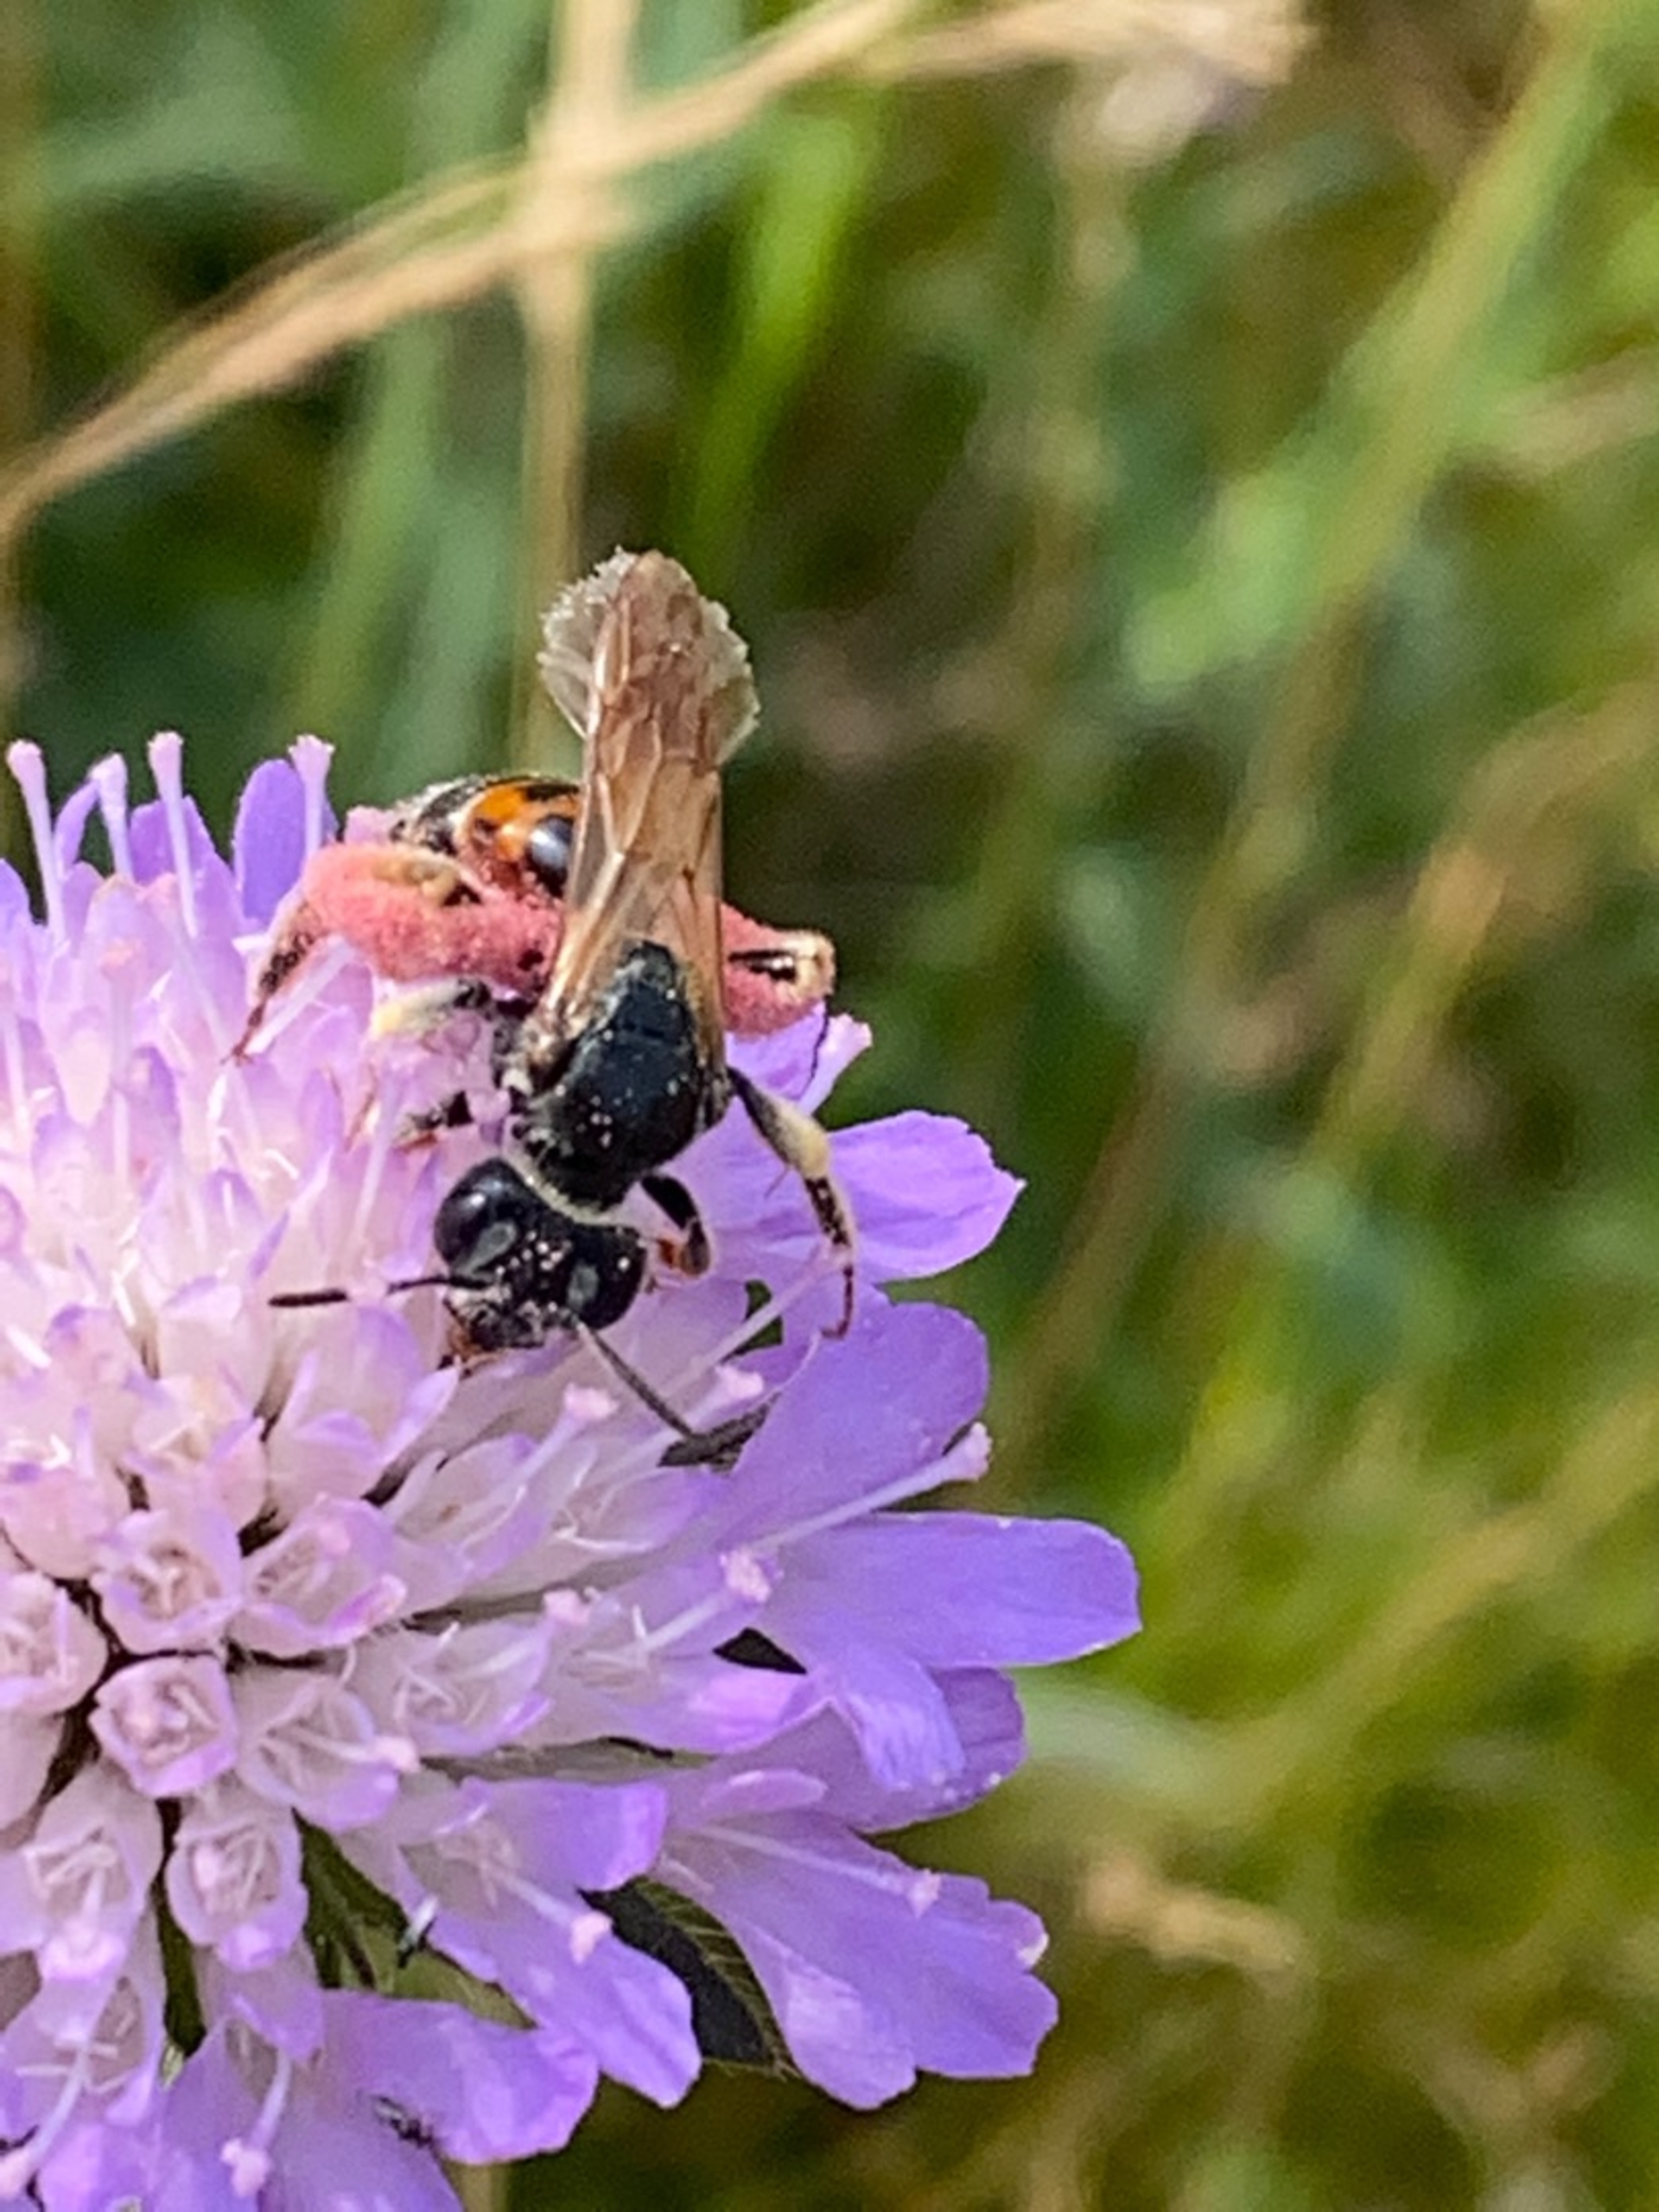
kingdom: Animalia
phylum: Arthropoda
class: Insecta
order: Hymenoptera
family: Andrenidae
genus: Andrena
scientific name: Andrena hattorfiana
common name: Blåhatjordbi
